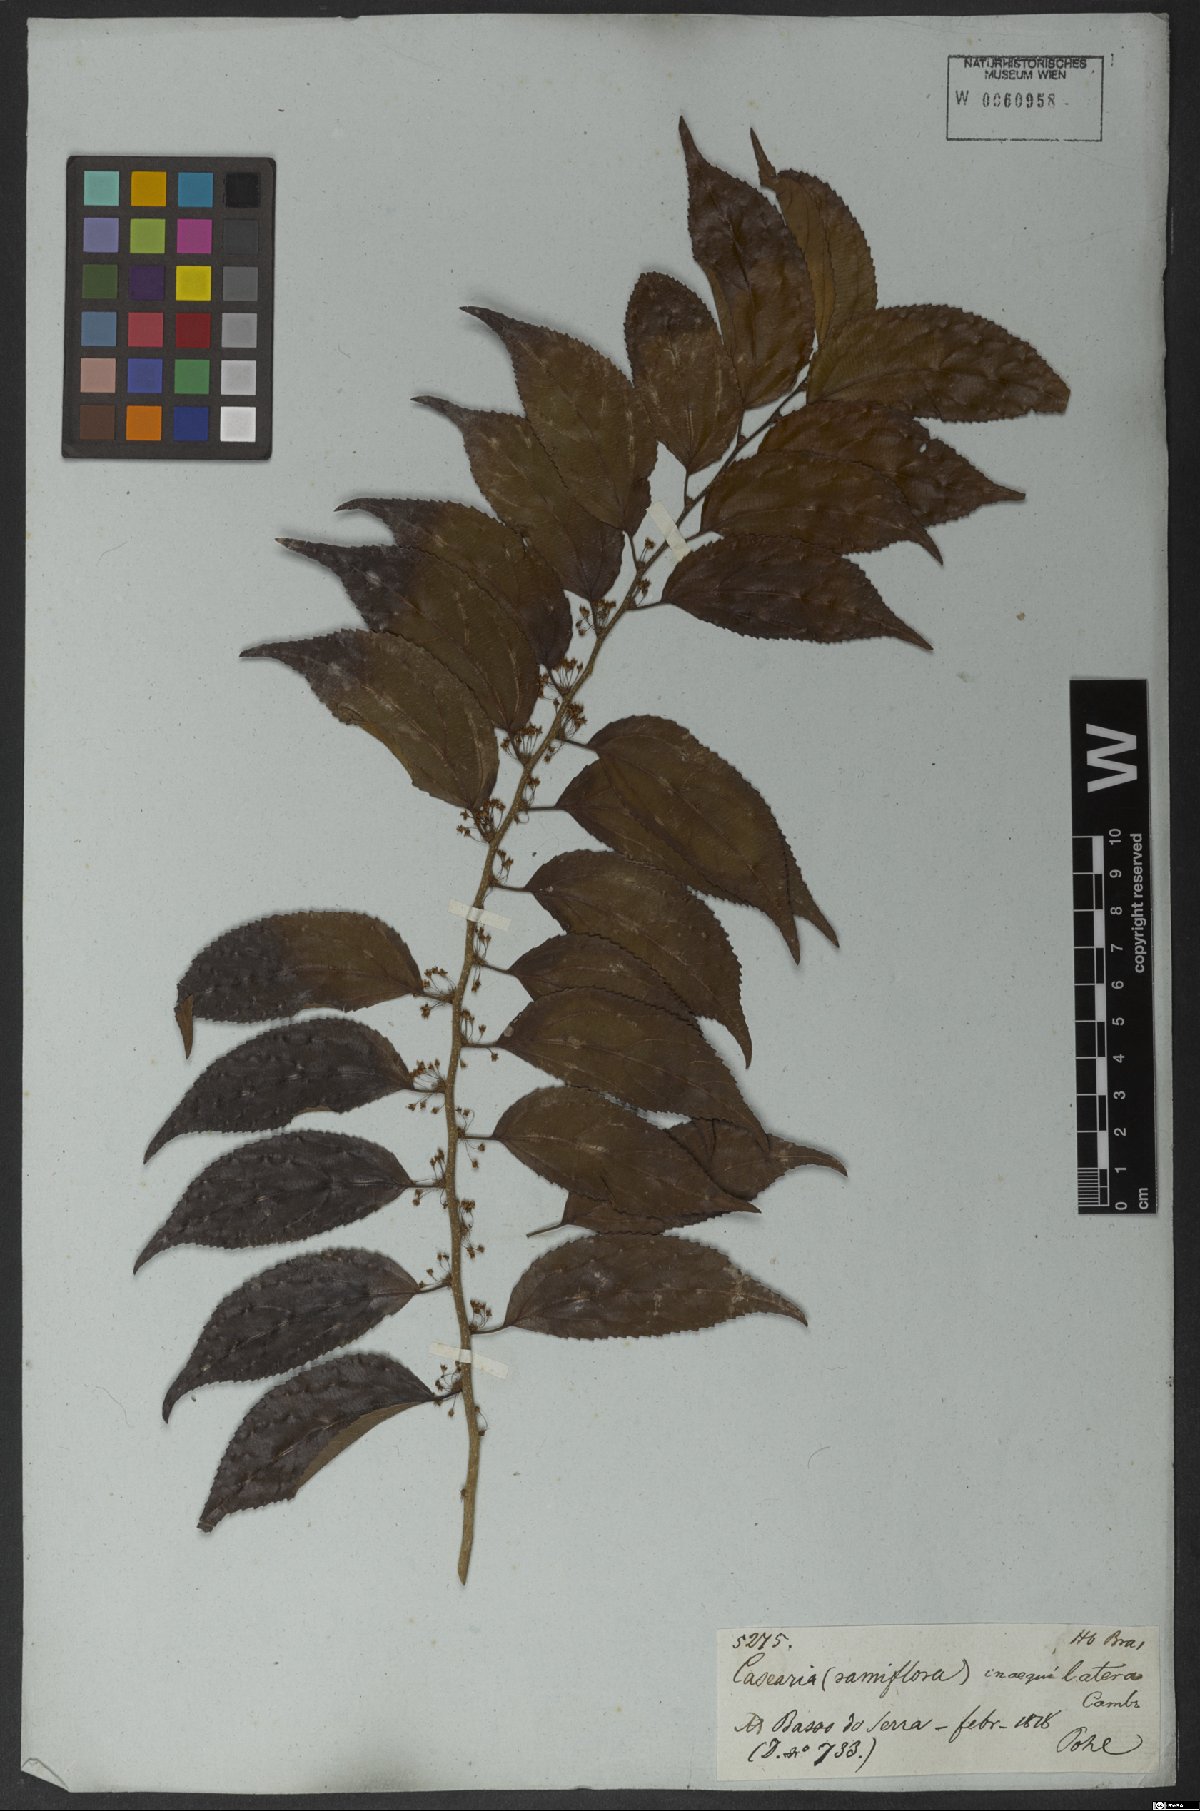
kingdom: Plantae
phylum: Tracheophyta
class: Magnoliopsida
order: Malpighiales
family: Salicaceae
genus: Casearia
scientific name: Casearia obliqua
